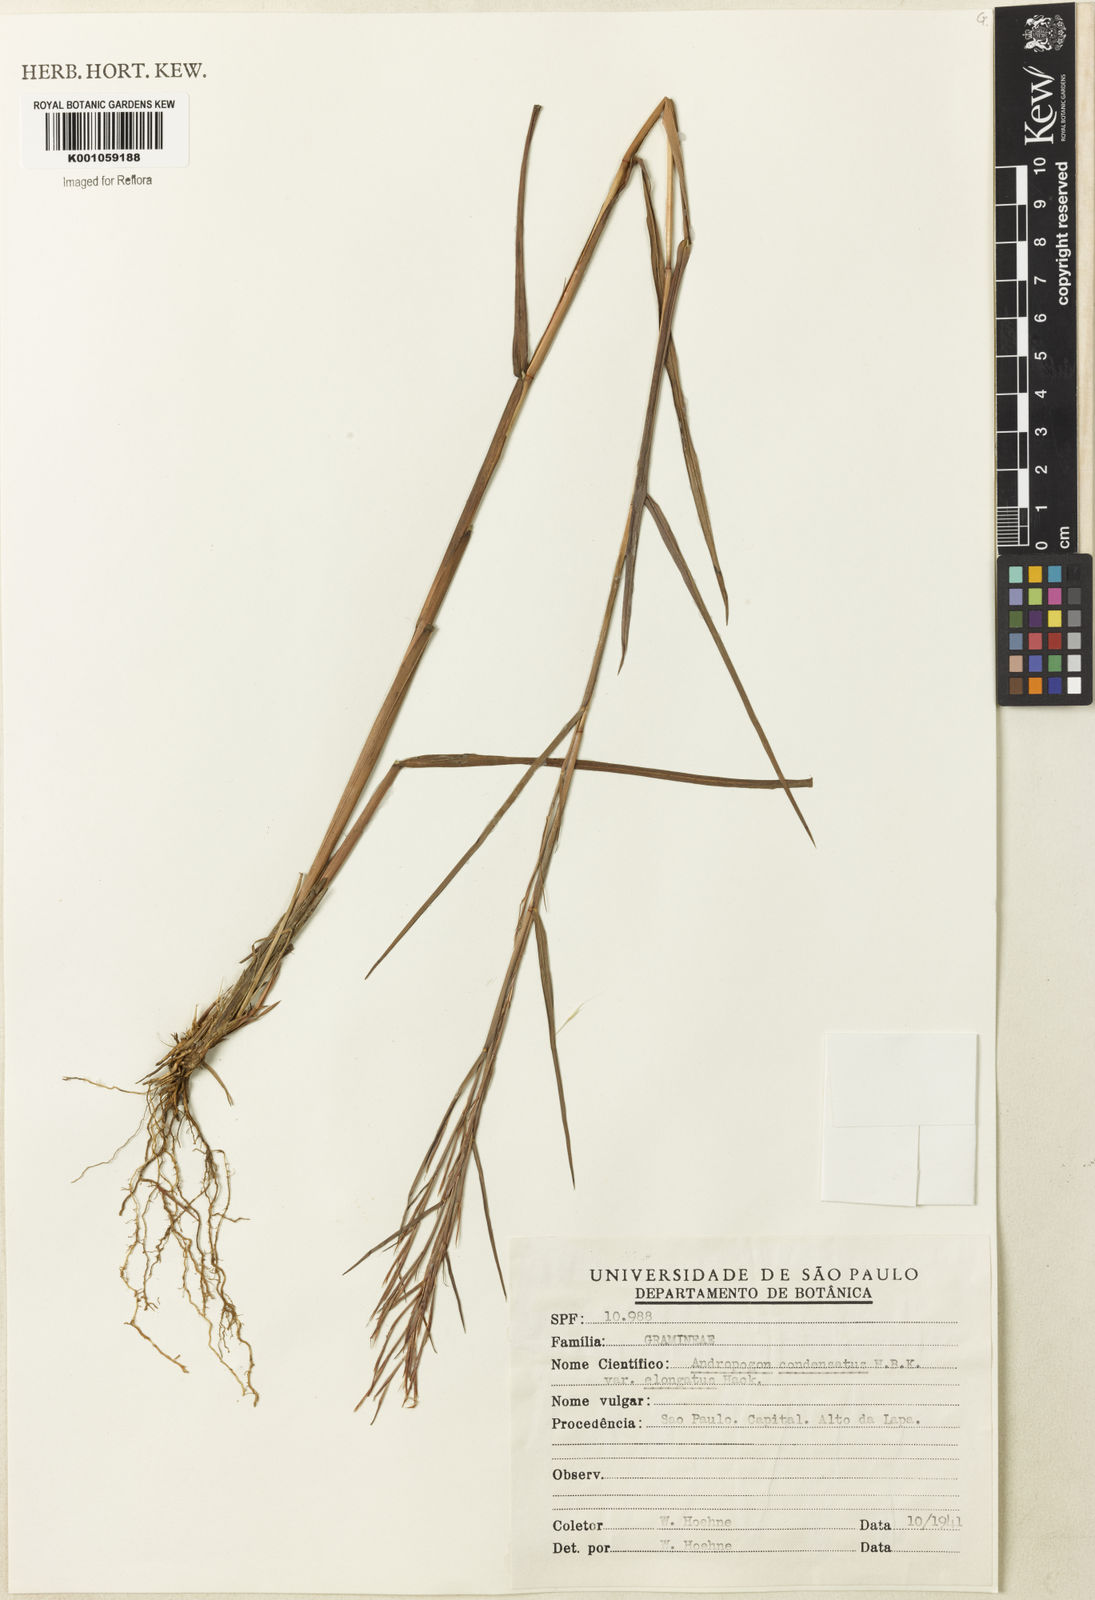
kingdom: Plantae
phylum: Tracheophyta
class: Liliopsida
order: Poales
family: Poaceae
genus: Schizachyrium
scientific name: Schizachyrium condensatum
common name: Bush beardgrass
